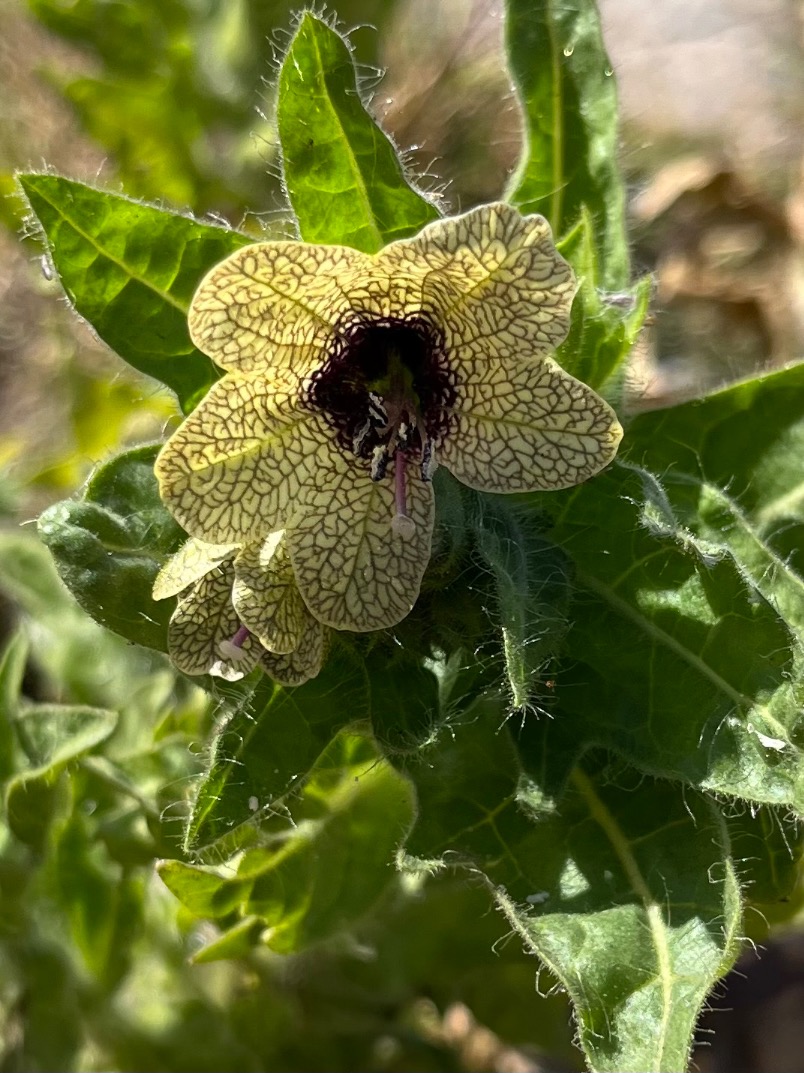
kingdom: Plantae
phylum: Tracheophyta
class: Magnoliopsida
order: Solanales
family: Solanaceae
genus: Hyoscyamus
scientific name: Hyoscyamus niger
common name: Bulmeurt
